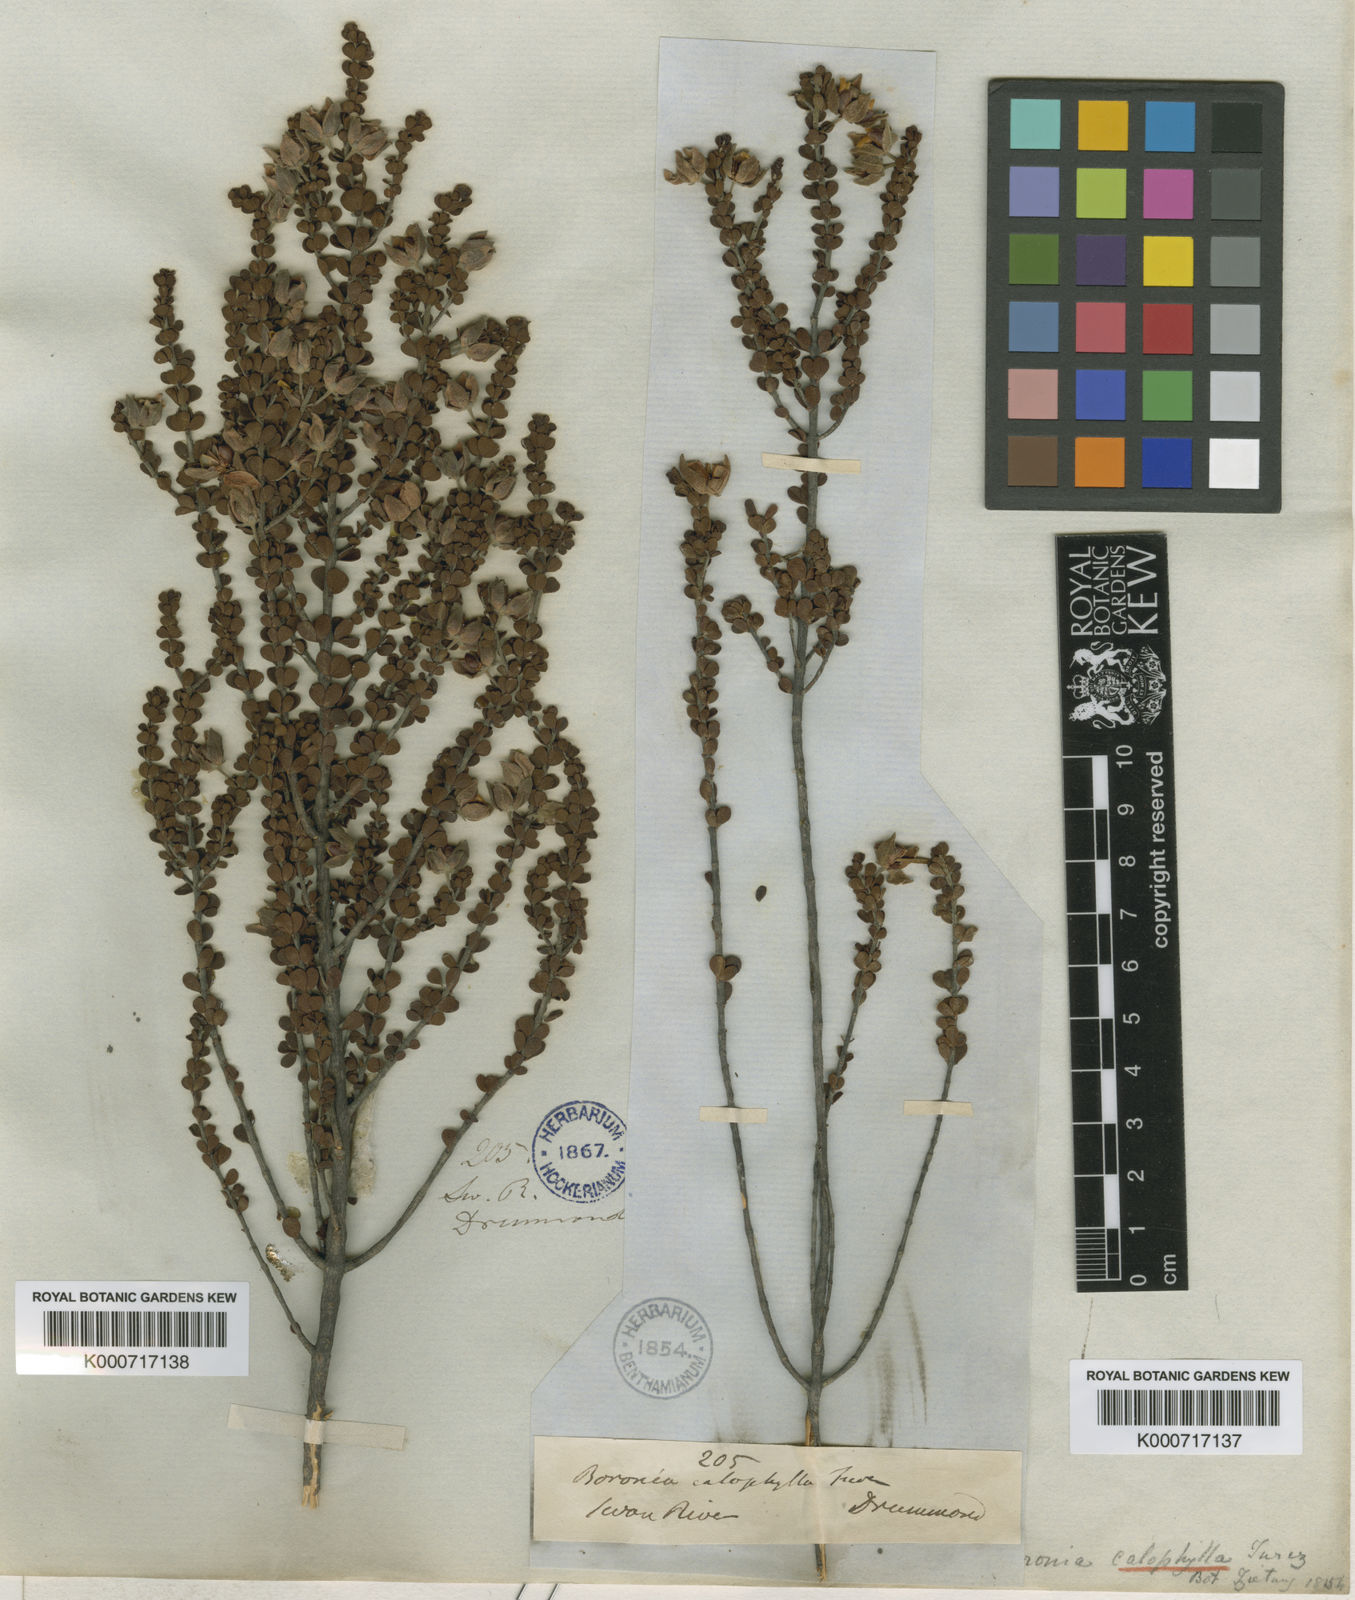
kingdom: Plantae
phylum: Tracheophyta
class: Magnoliopsida
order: Sapindales
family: Rutaceae
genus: Boronia
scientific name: Boronia ternata
